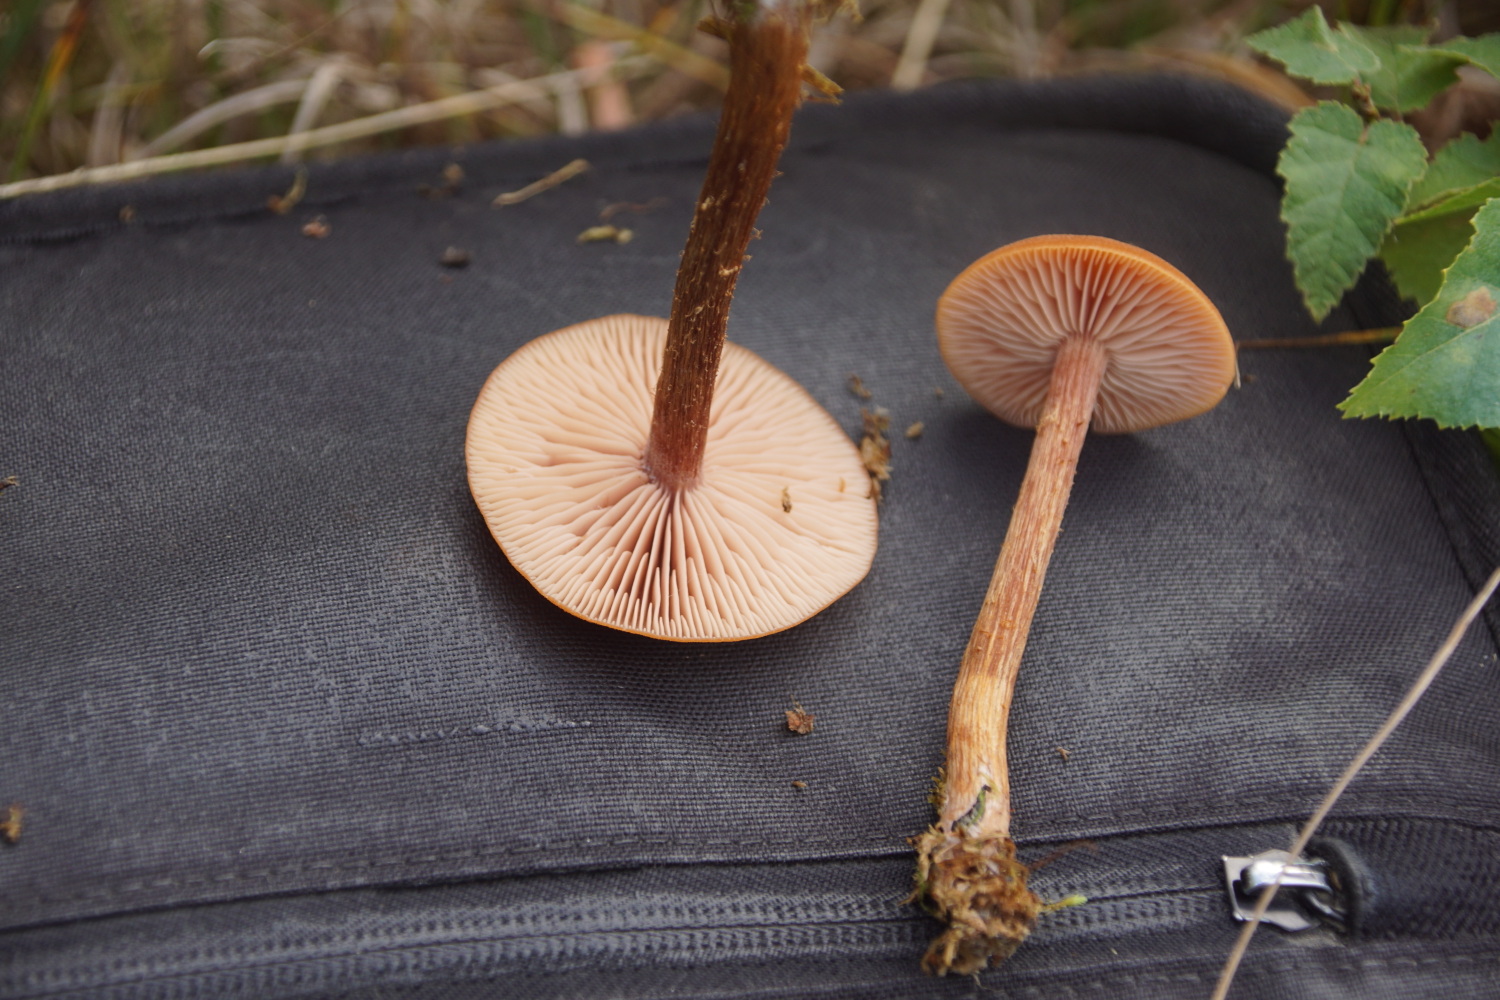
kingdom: Fungi
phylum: Basidiomycota
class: Agaricomycetes
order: Agaricales
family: Hydnangiaceae
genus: Laccaria
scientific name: Laccaria proxima
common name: stor ametysthat
